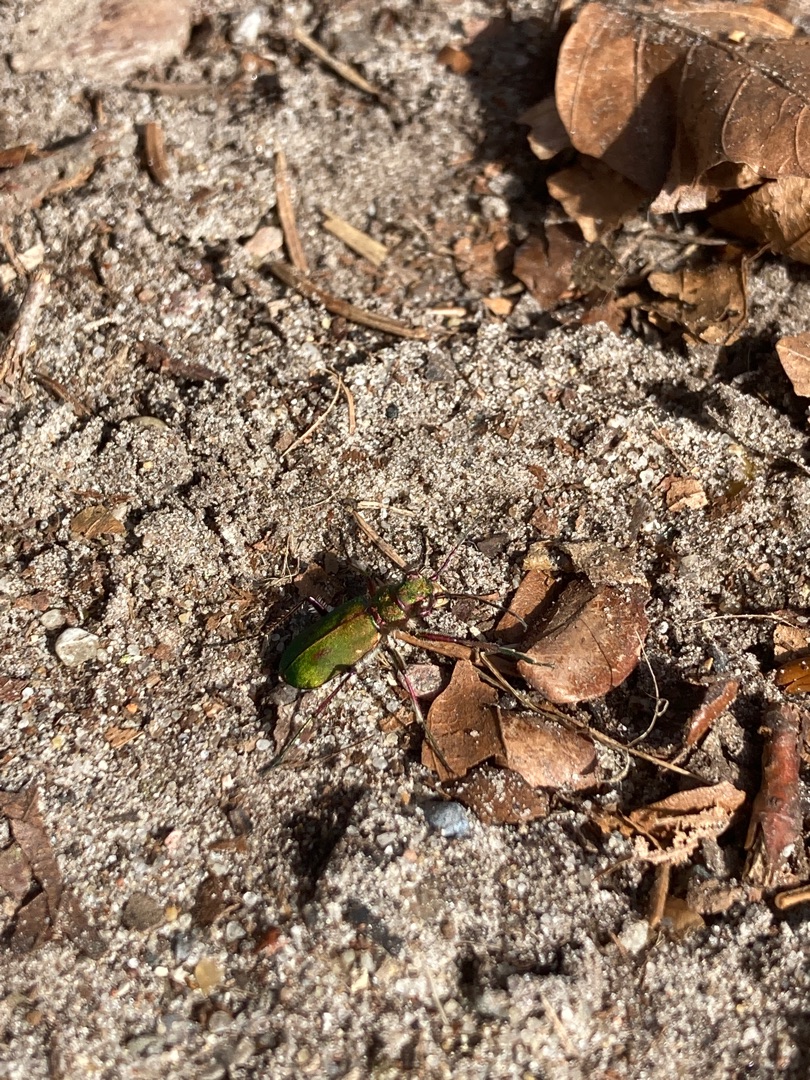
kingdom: Animalia
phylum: Arthropoda
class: Insecta
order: Coleoptera
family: Carabidae
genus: Cicindela
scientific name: Cicindela campestris
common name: Grøn sandspringer
